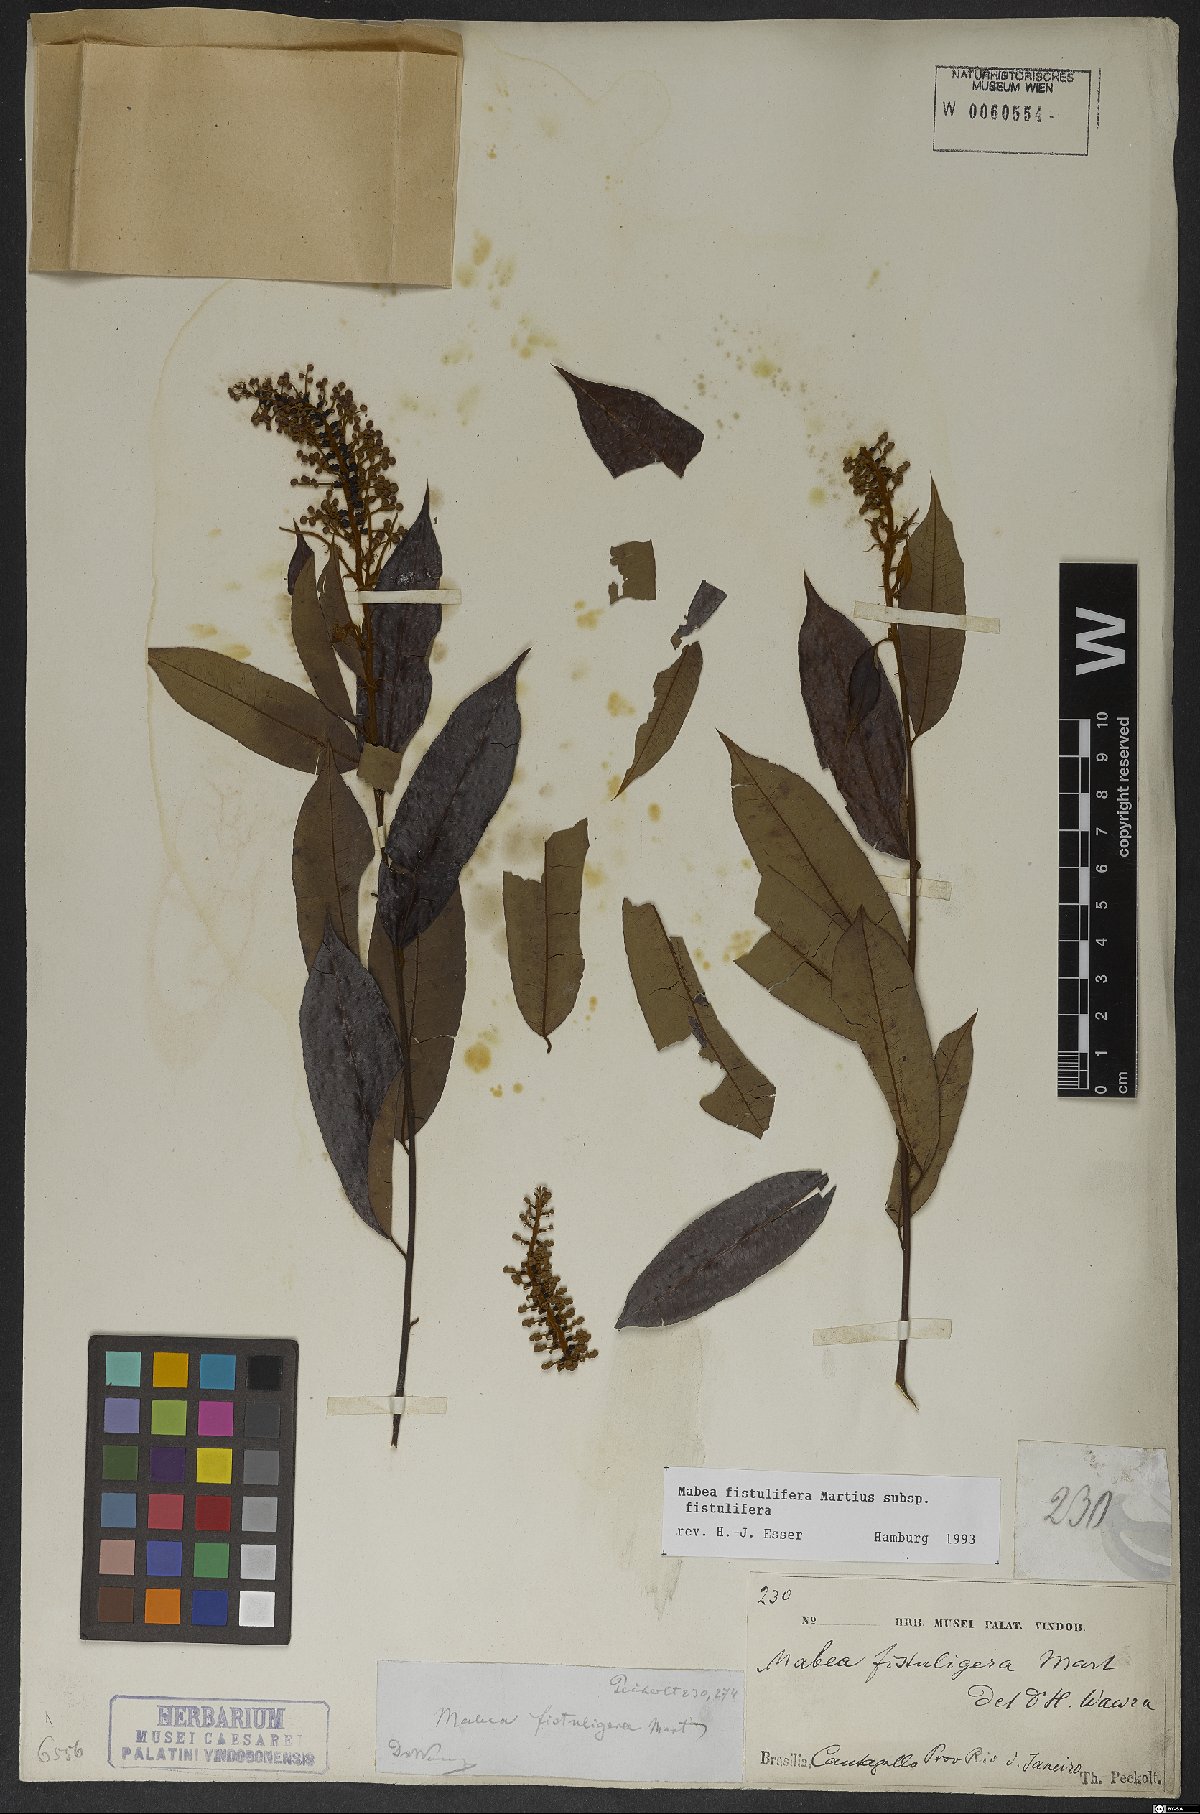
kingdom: Plantae
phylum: Tracheophyta
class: Magnoliopsida
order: Malpighiales
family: Euphorbiaceae
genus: Mabea
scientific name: Mabea fistulifera
